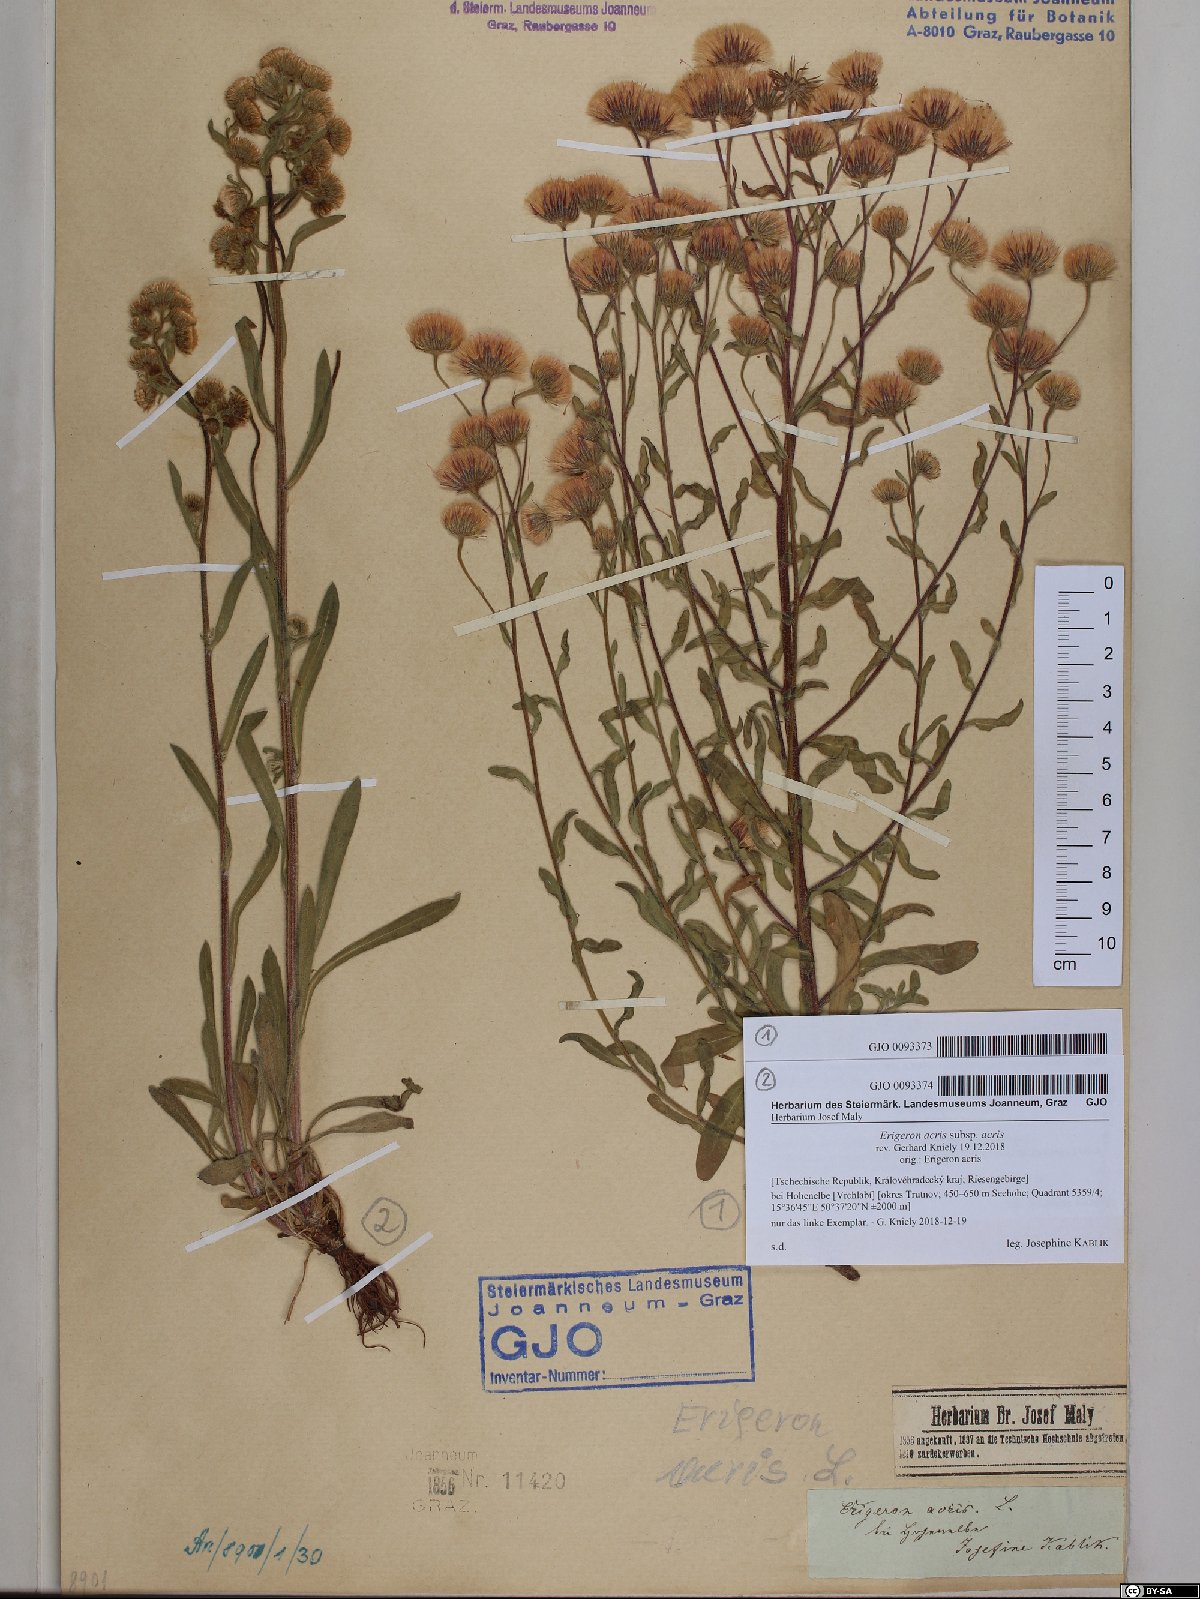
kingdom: Plantae
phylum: Tracheophyta
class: Magnoliopsida
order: Asterales
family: Asteraceae
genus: Erigeron
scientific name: Erigeron muralis
